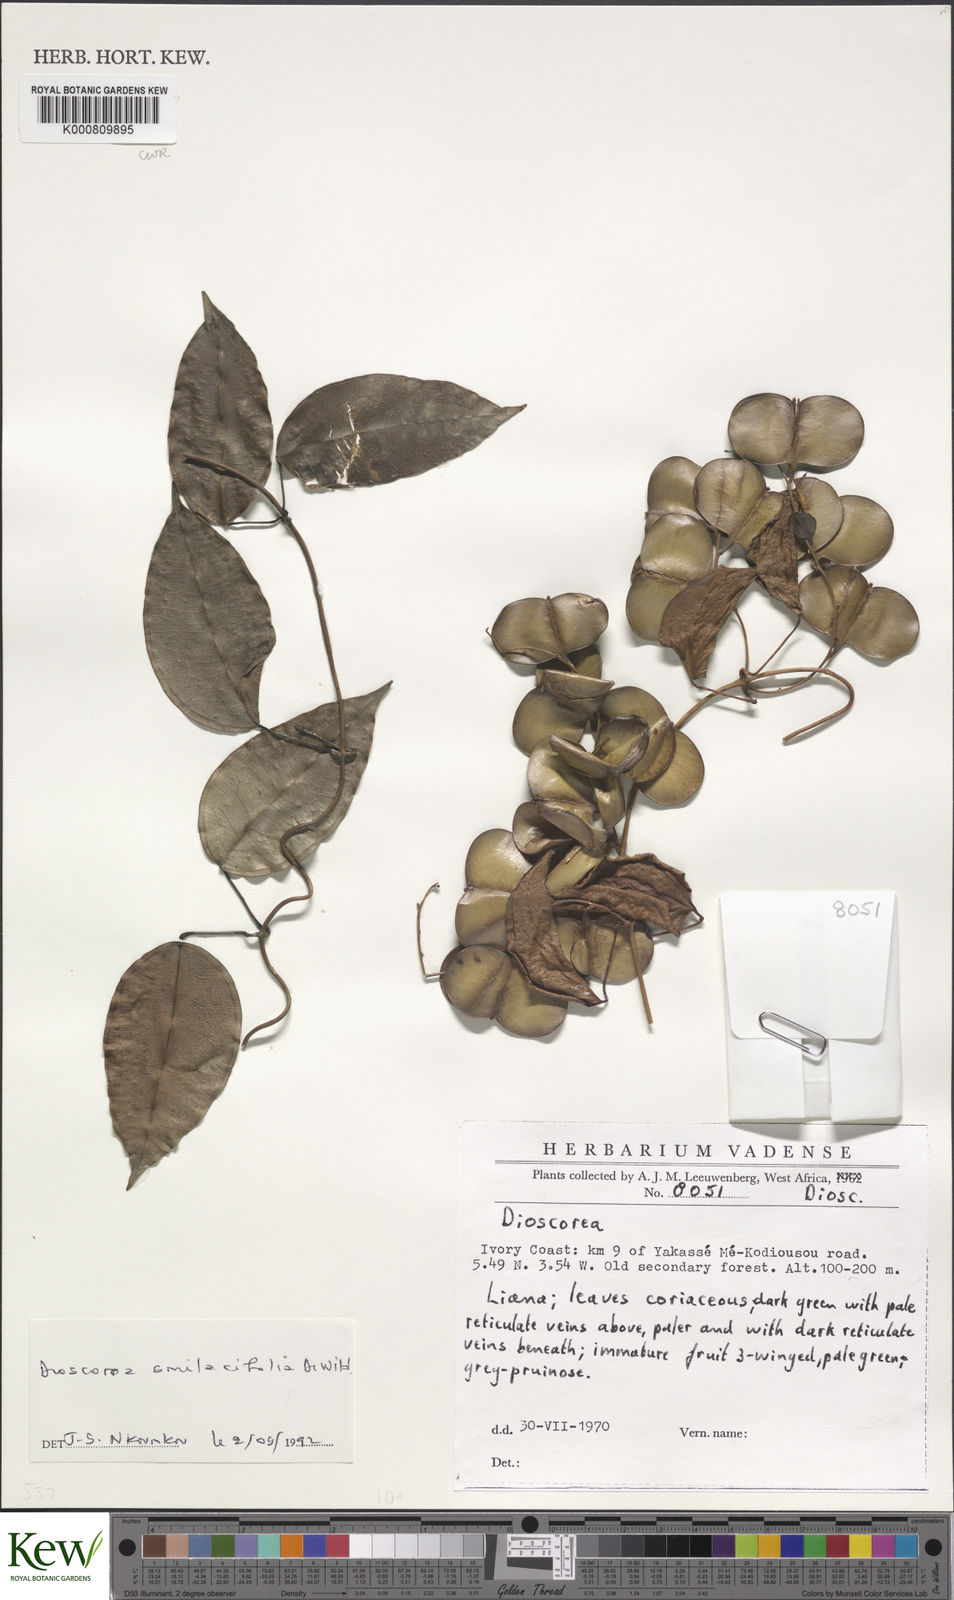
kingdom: Plantae
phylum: Tracheophyta
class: Liliopsida
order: Dioscoreales
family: Dioscoreaceae
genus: Dioscorea
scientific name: Dioscorea smilacifolia
